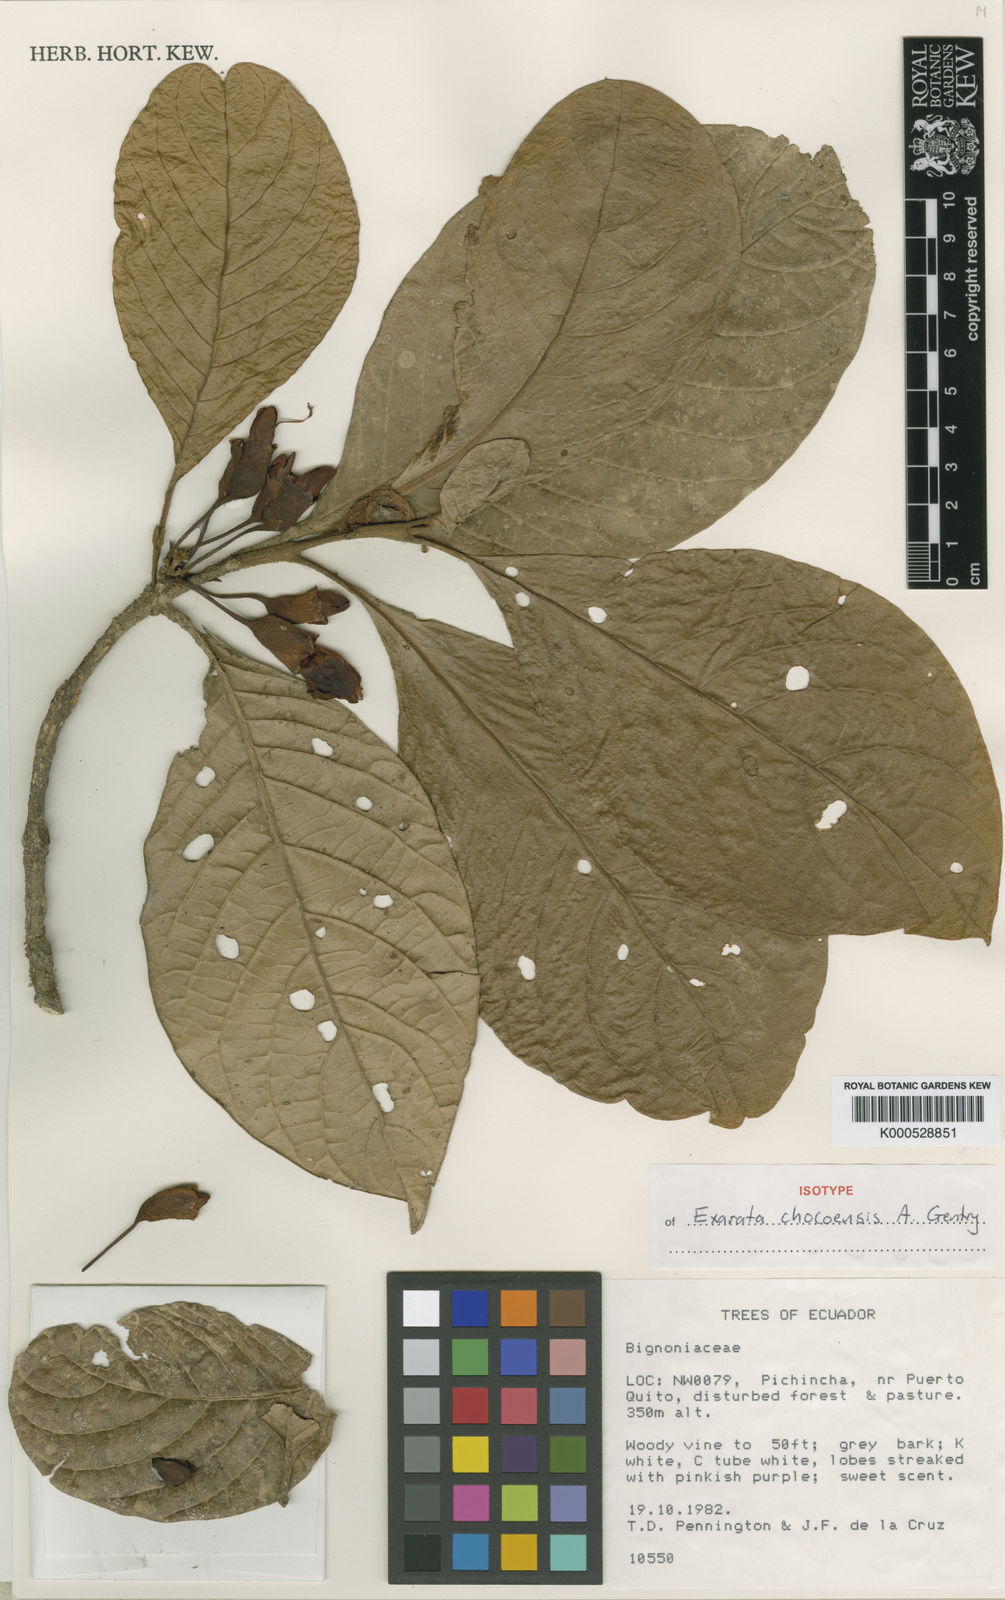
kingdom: Plantae
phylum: Tracheophyta
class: Magnoliopsida
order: Lamiales
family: Schlegeliaceae
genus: Exarata
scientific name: Exarata chocoensis
